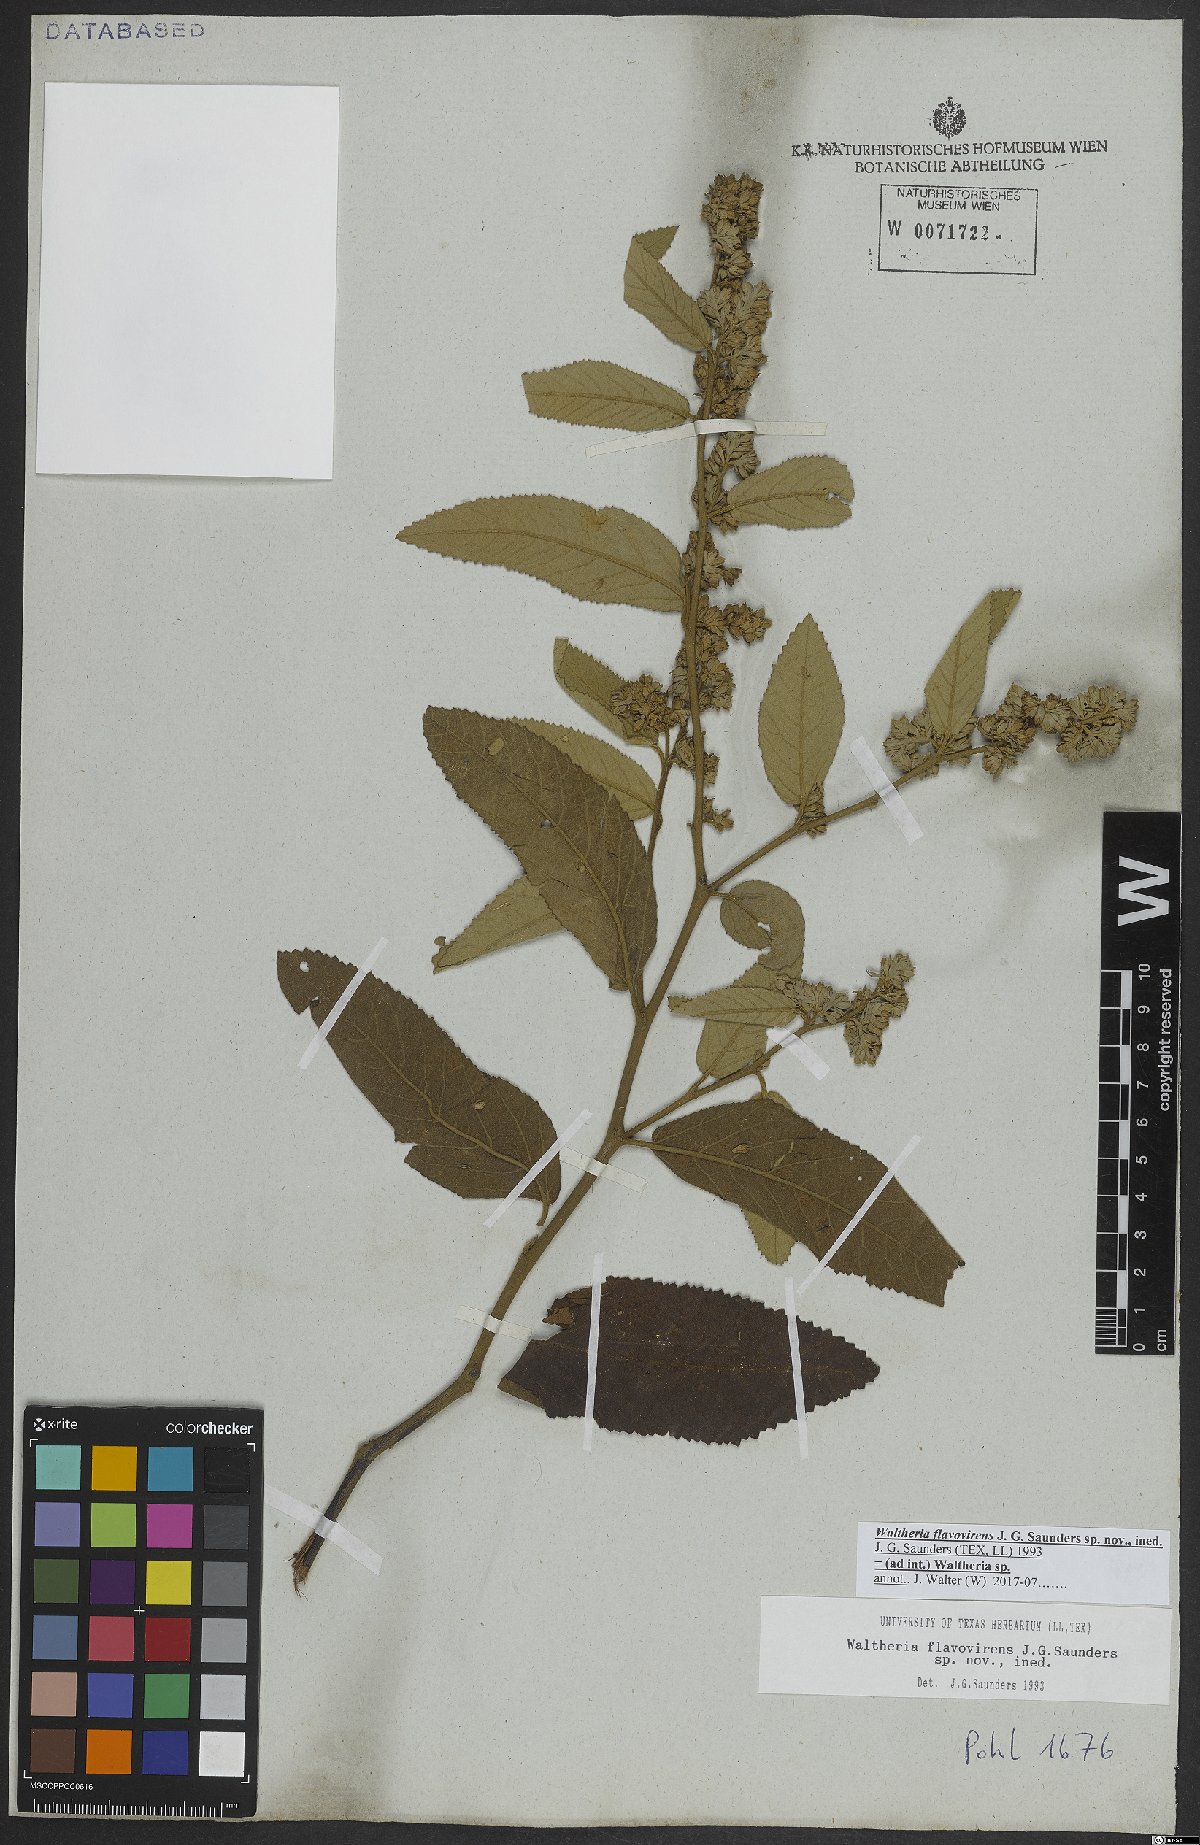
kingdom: Plantae
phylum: Tracheophyta
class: Magnoliopsida
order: Malvales
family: Malvaceae
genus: Waltheria
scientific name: Waltheria
